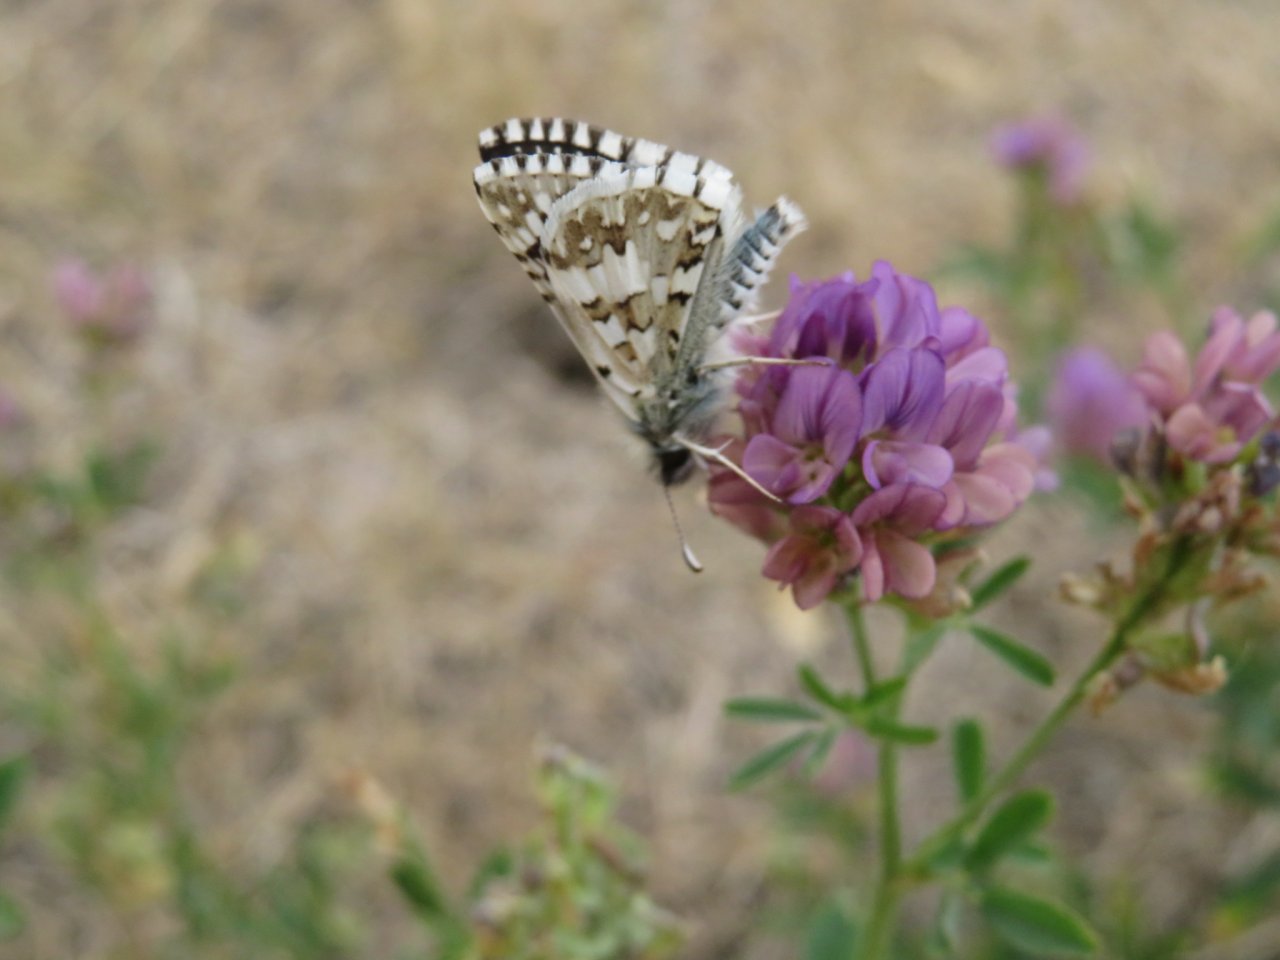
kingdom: Animalia
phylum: Arthropoda
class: Insecta
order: Lepidoptera
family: Hesperiidae
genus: Pyrgus
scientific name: Pyrgus communis
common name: Common Checkered-Skipper
